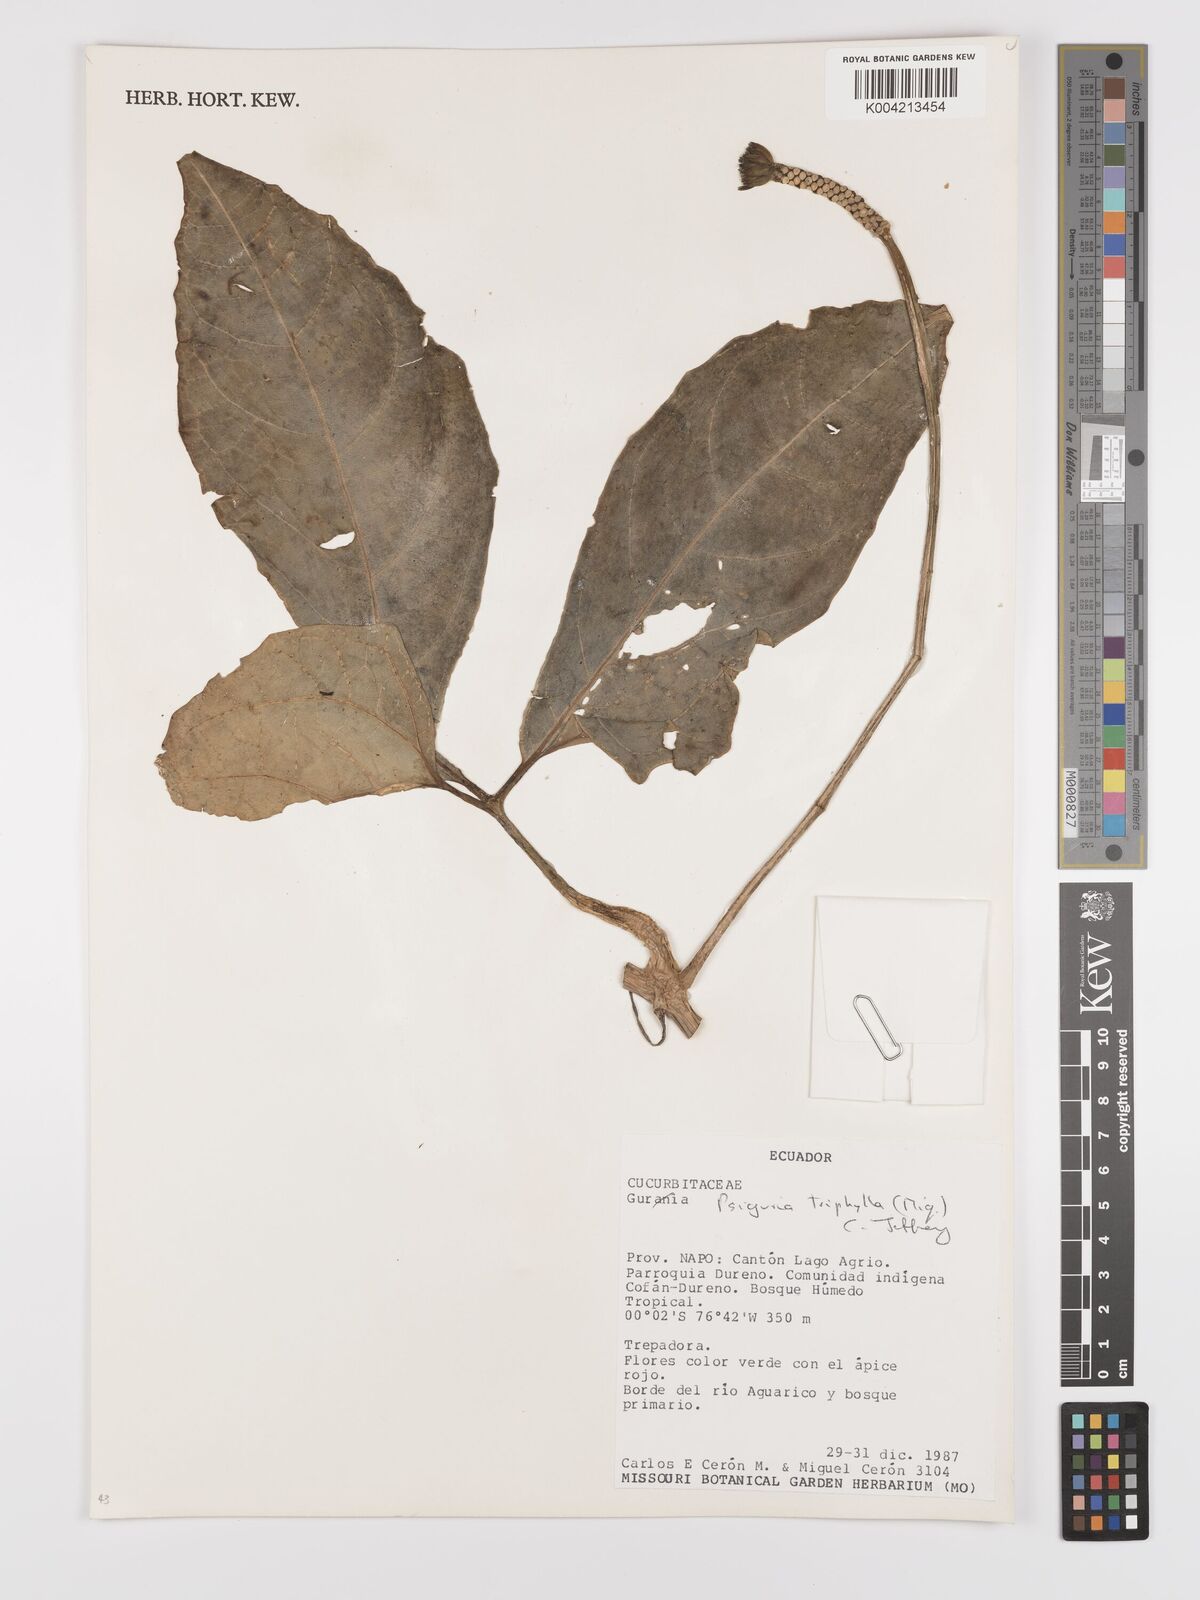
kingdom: Plantae
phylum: Tracheophyta
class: Magnoliopsida
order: Cucurbitales
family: Cucurbitaceae
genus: Psiguria
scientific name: Psiguria triphylla
